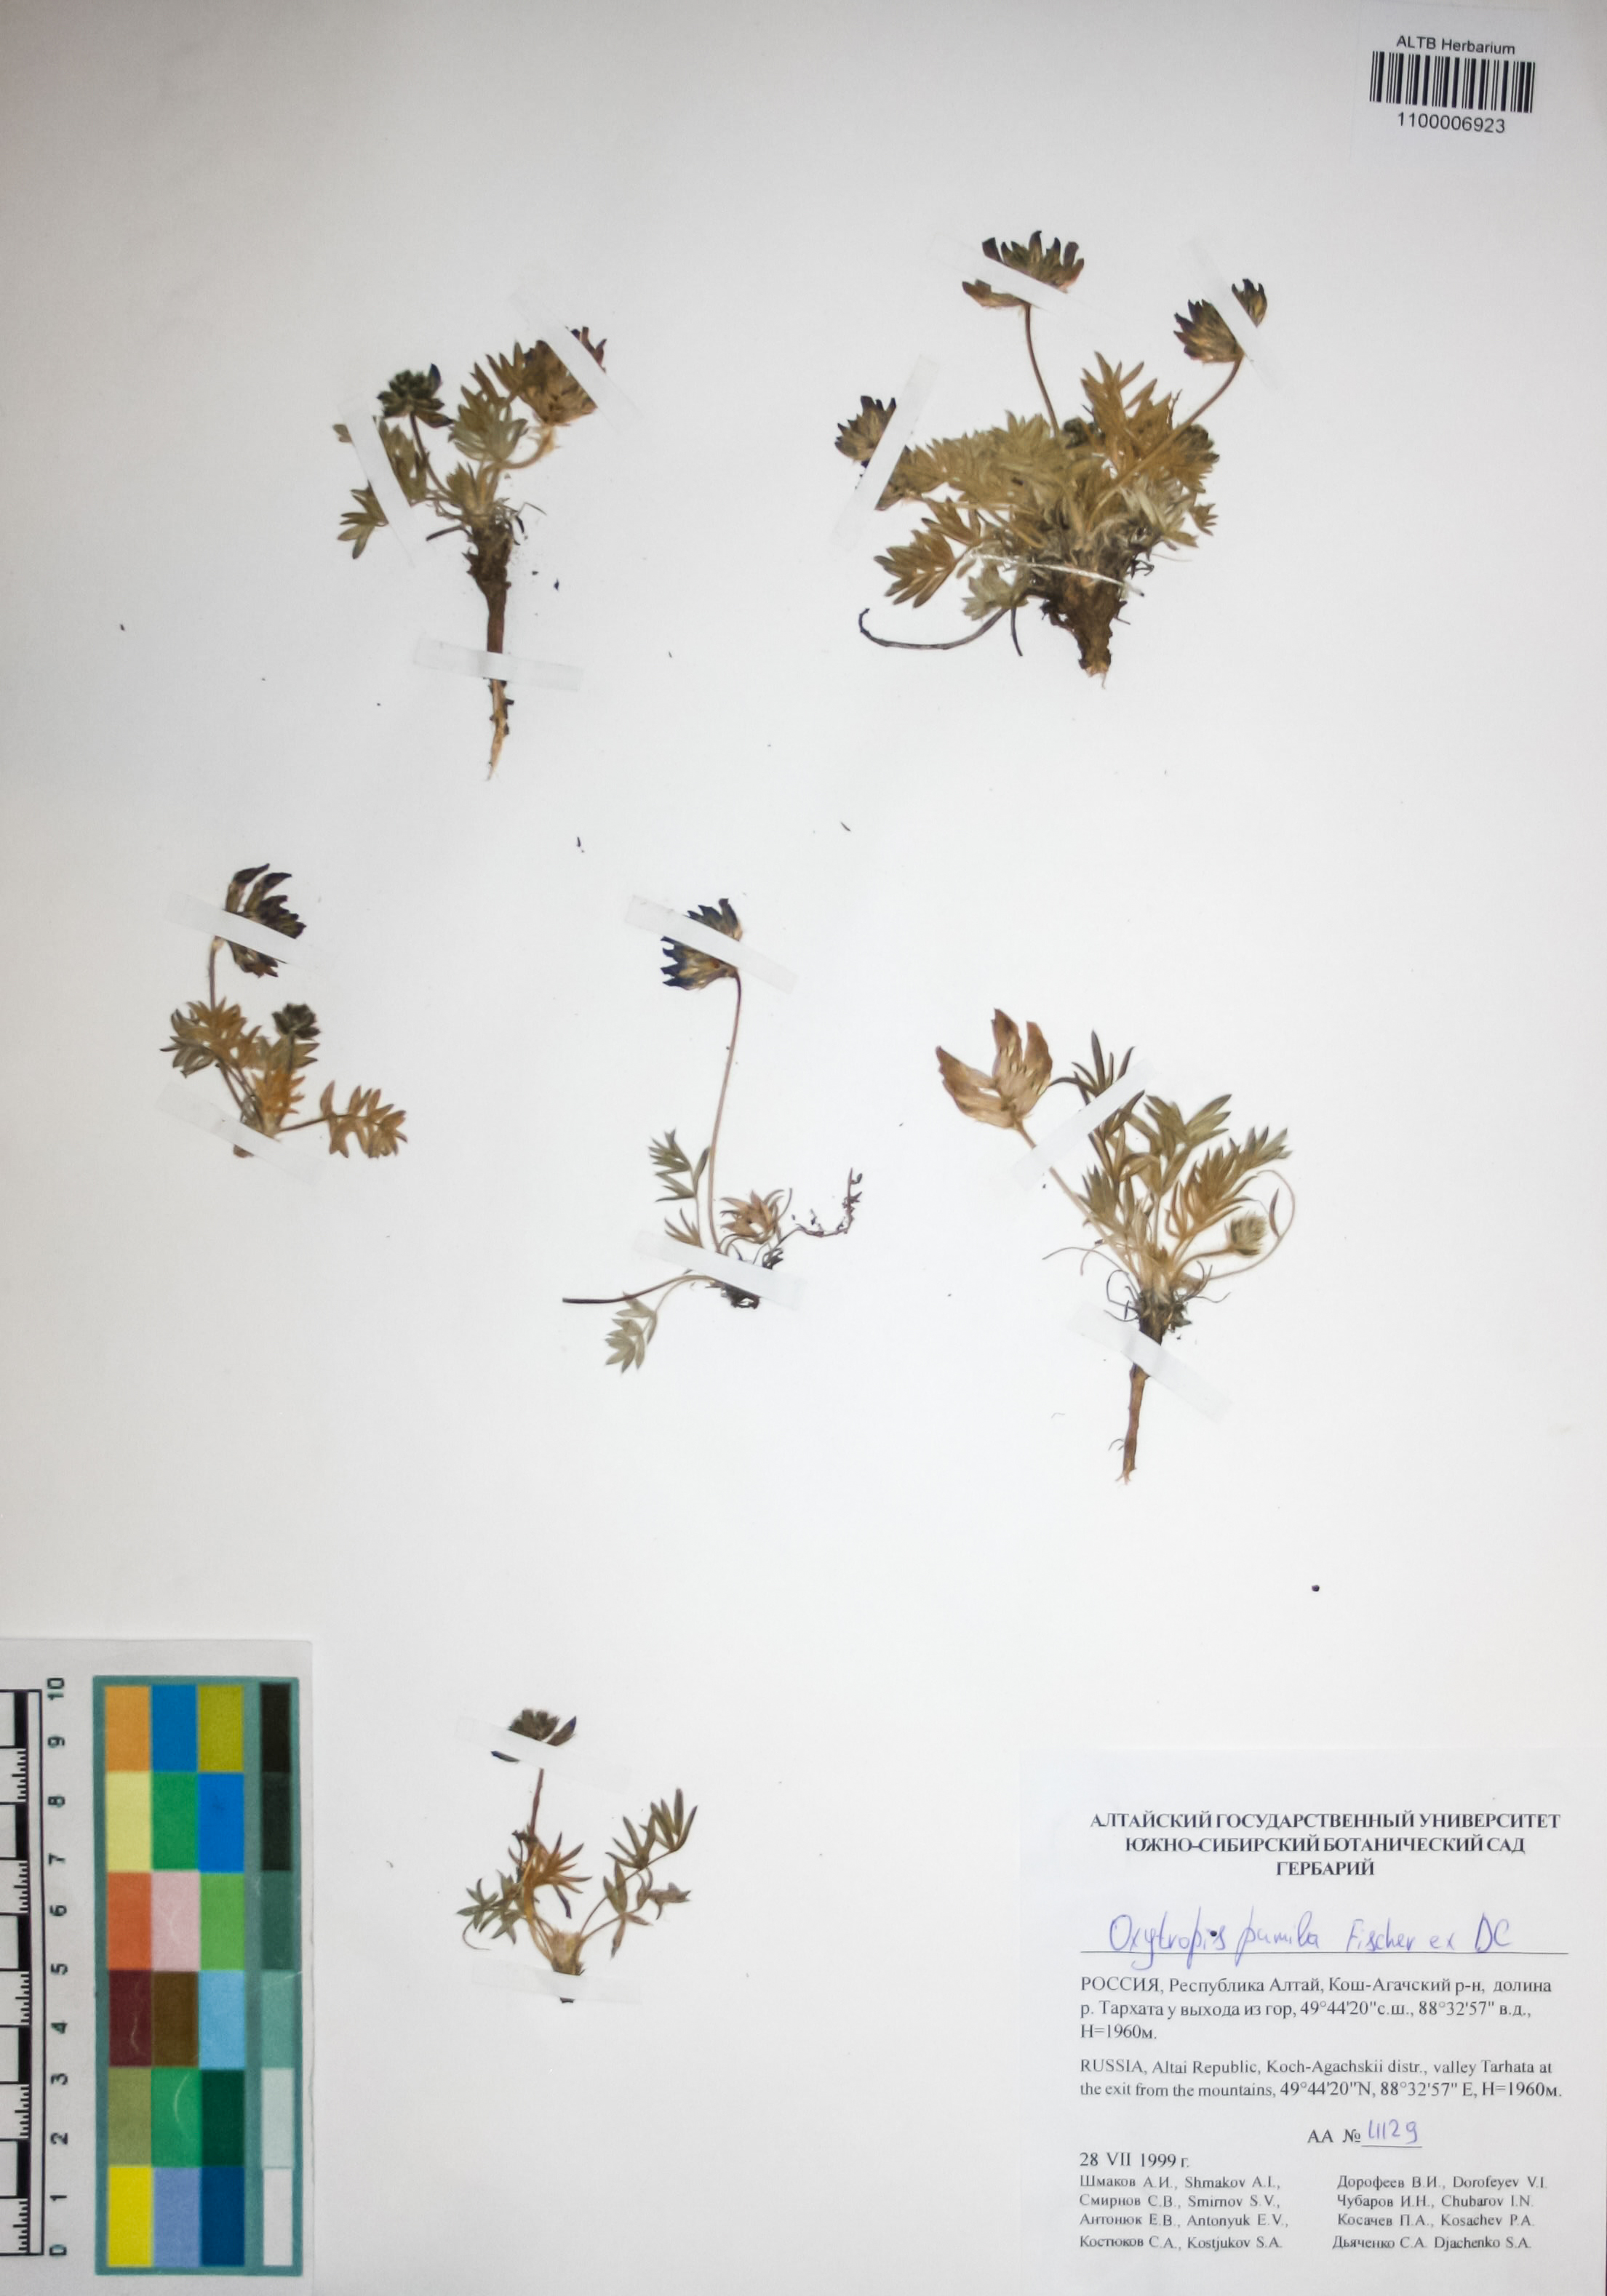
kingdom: Plantae
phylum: Tracheophyta
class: Magnoliopsida
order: Fabales
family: Fabaceae
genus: Oxytropis
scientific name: Oxytropis pumila
